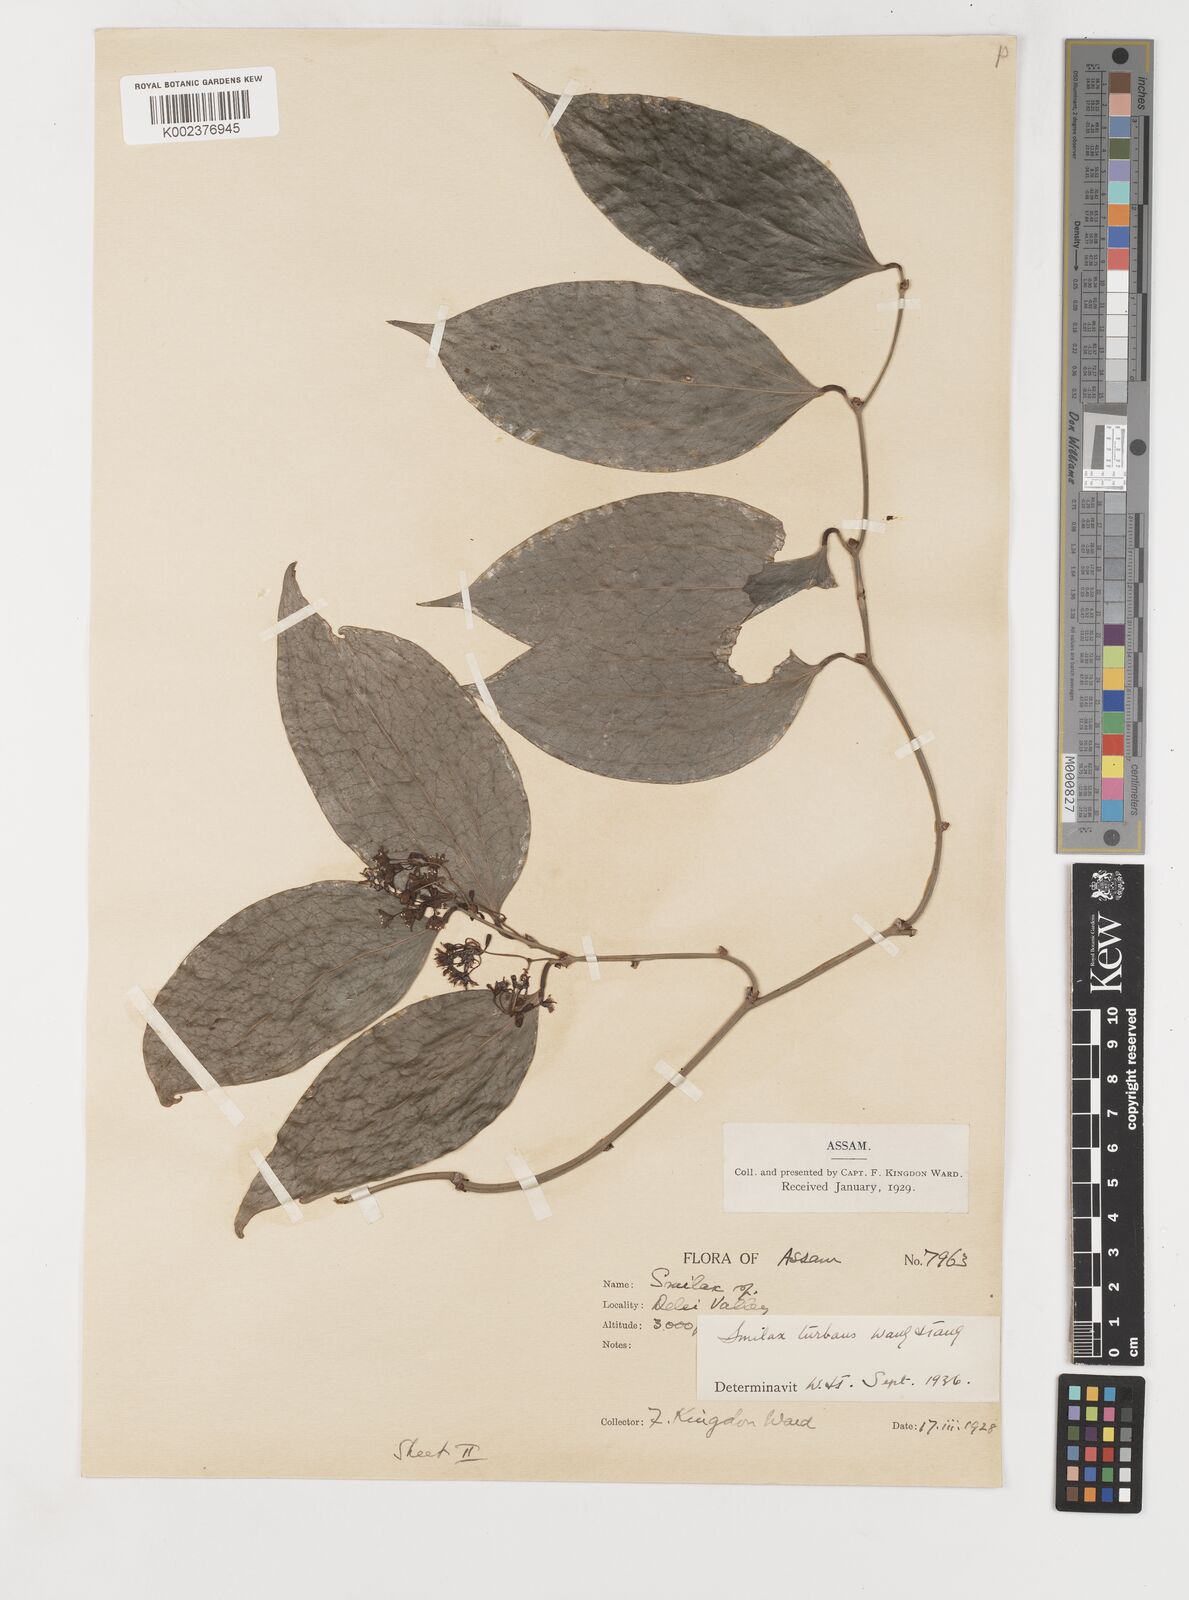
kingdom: Plantae
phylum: Tracheophyta
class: Liliopsida
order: Liliales
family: Smilacaceae
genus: Smilax
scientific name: Smilax turbans
